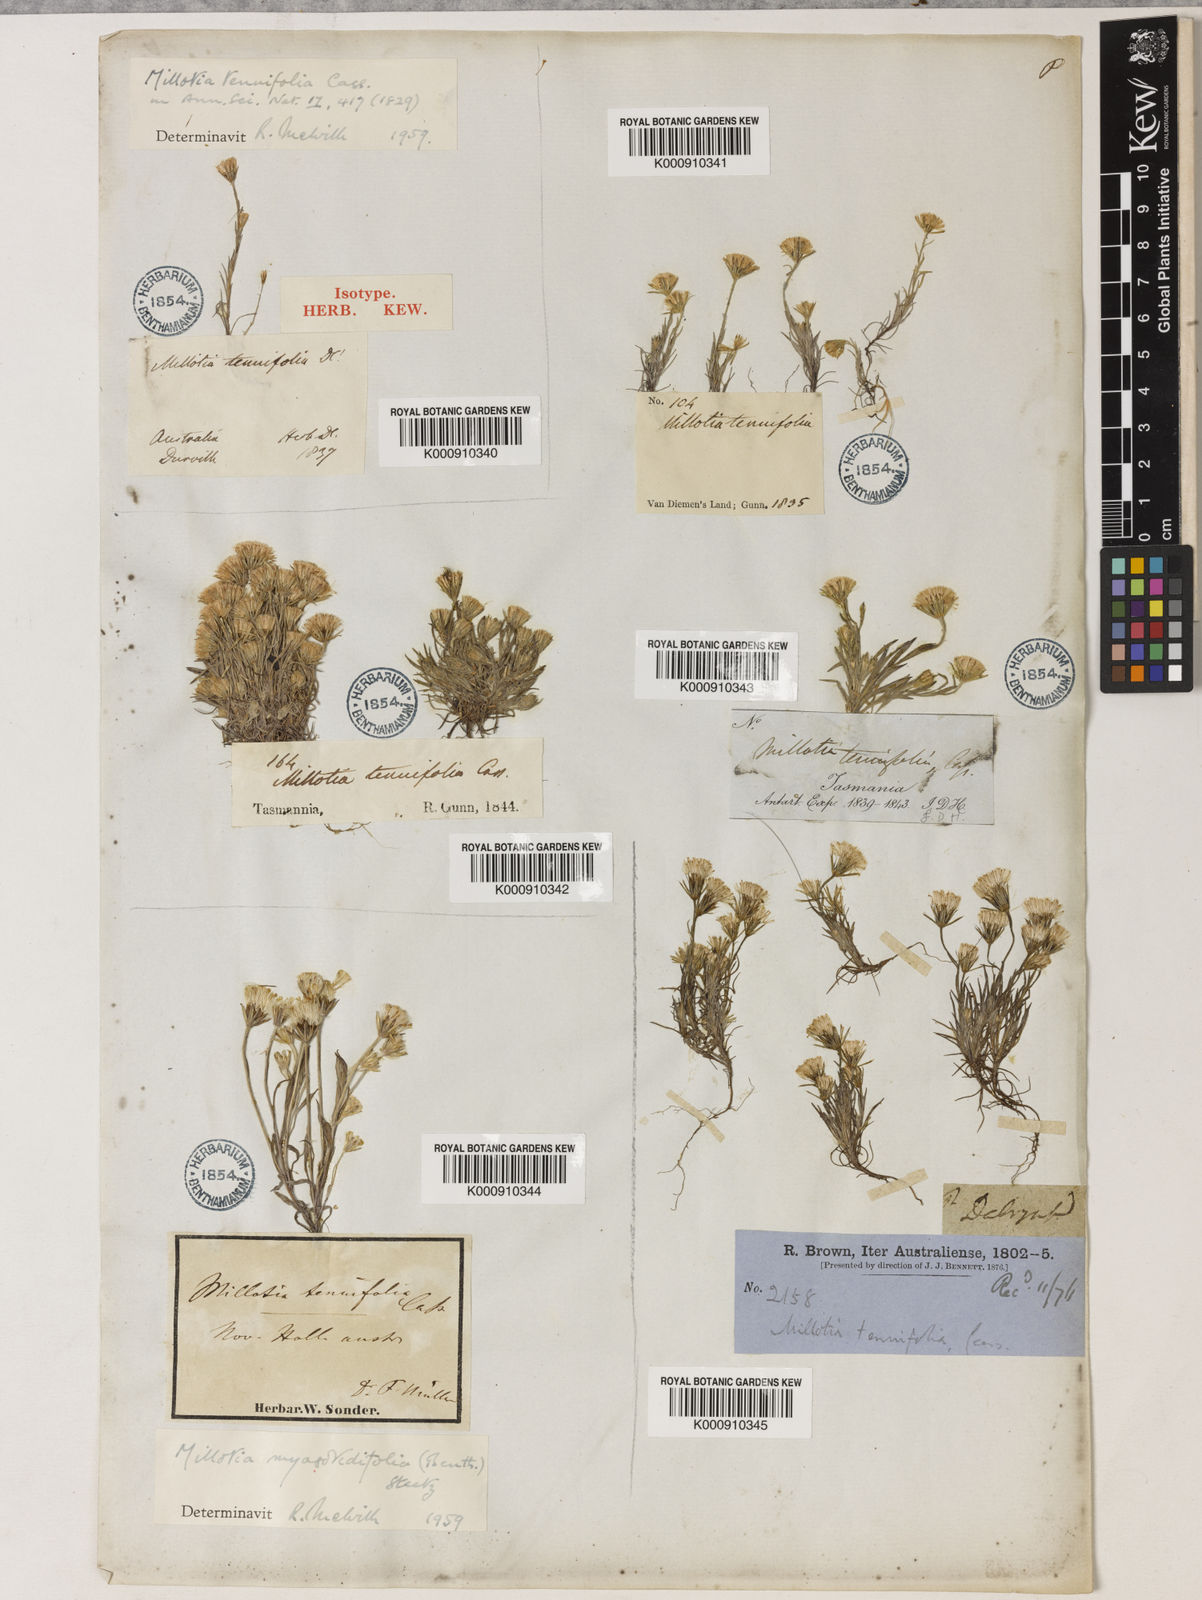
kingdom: Plantae
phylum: Tracheophyta
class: Magnoliopsida
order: Asterales
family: Asteraceae
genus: Millotia
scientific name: Millotia tenuifolia
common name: Soft millotia
